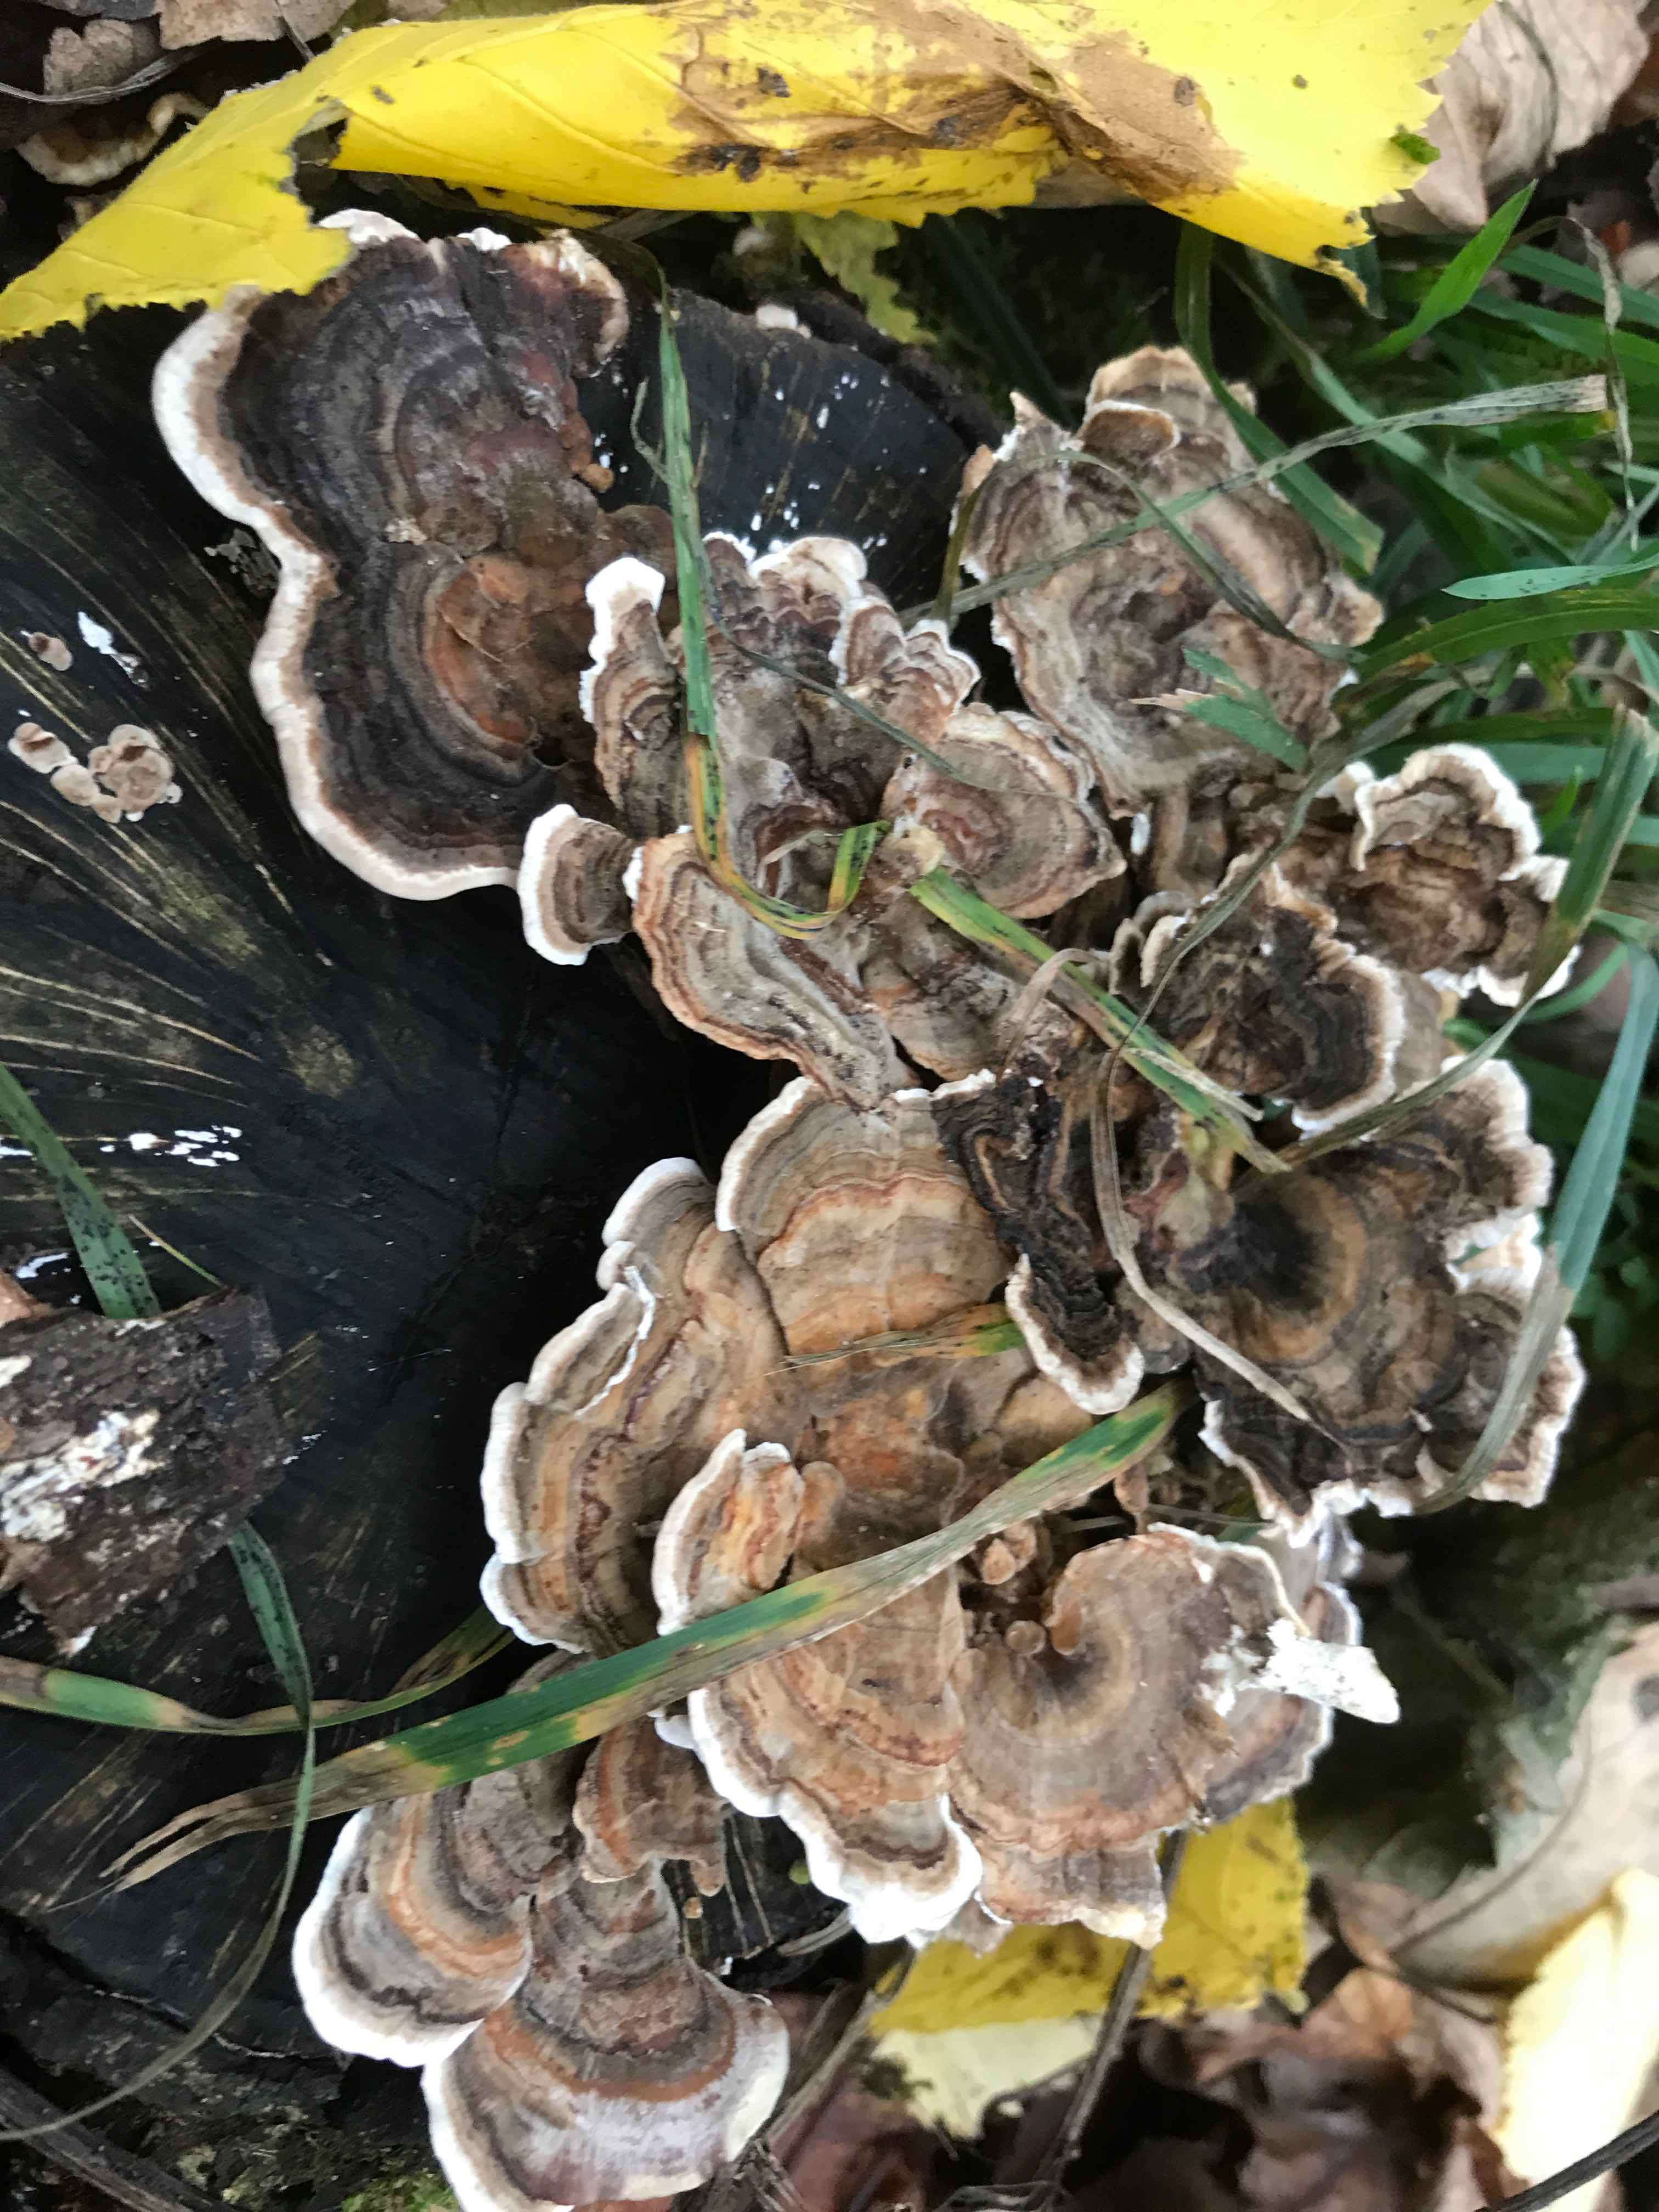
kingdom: Fungi
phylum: Basidiomycota
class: Agaricomycetes
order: Polyporales
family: Polyporaceae
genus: Trametes
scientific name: Trametes versicolor
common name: broget læderporesvamp
